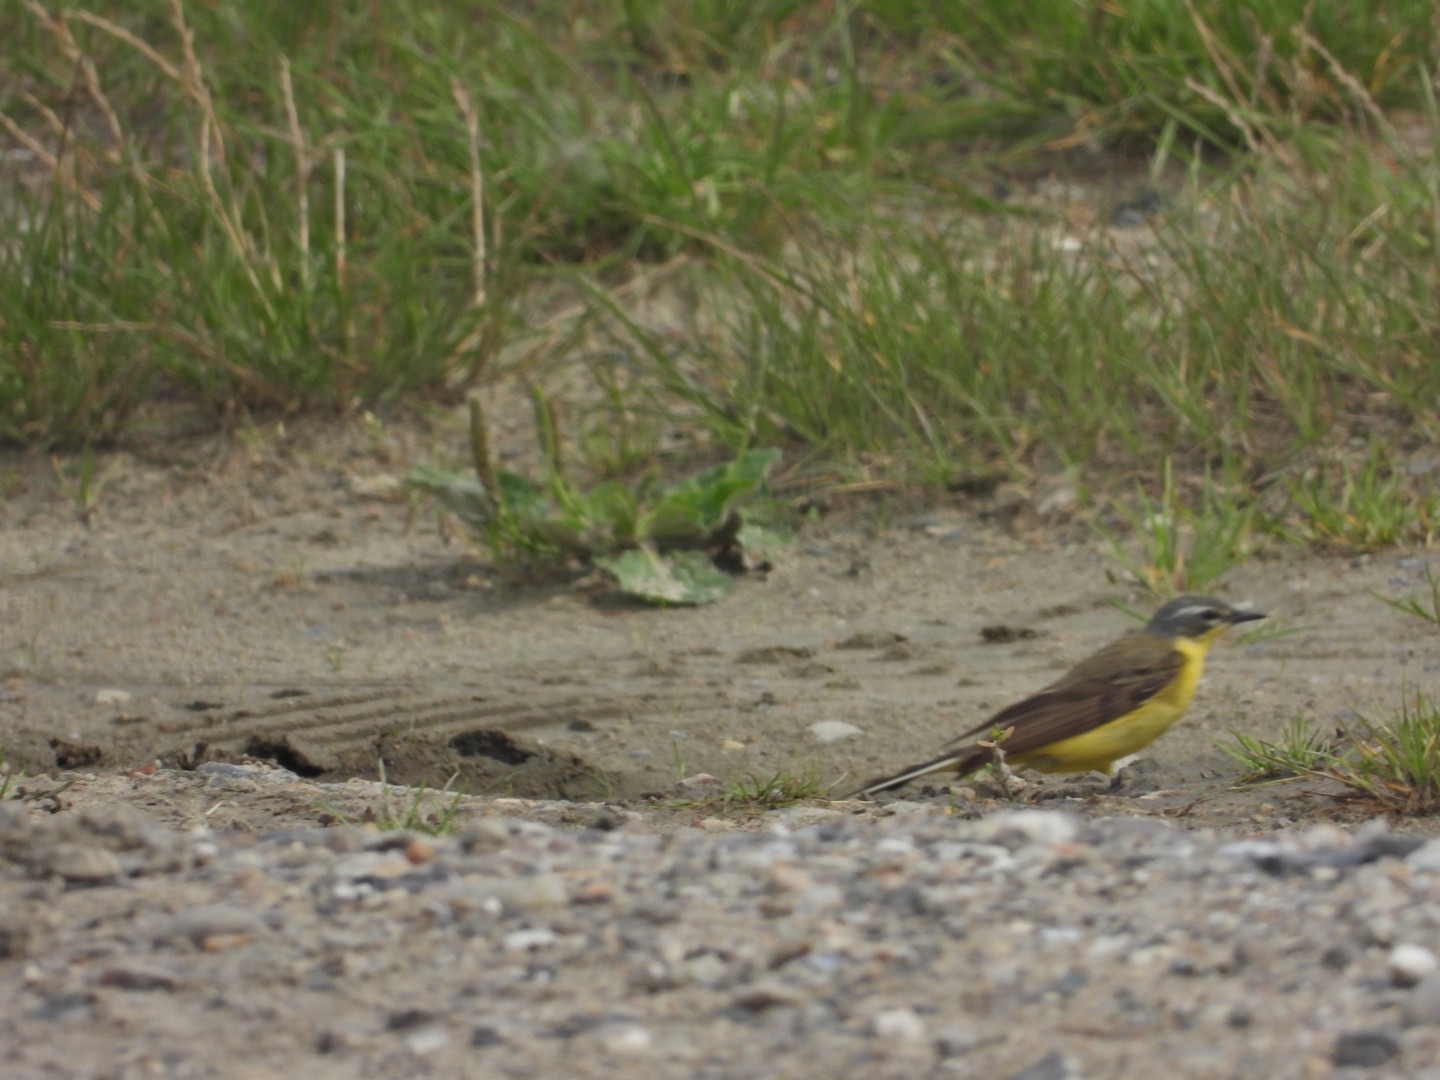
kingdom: Animalia
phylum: Chordata
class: Aves
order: Passeriformes
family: Motacillidae
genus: Motacilla
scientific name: Motacilla flava
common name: Gul vipstjert
